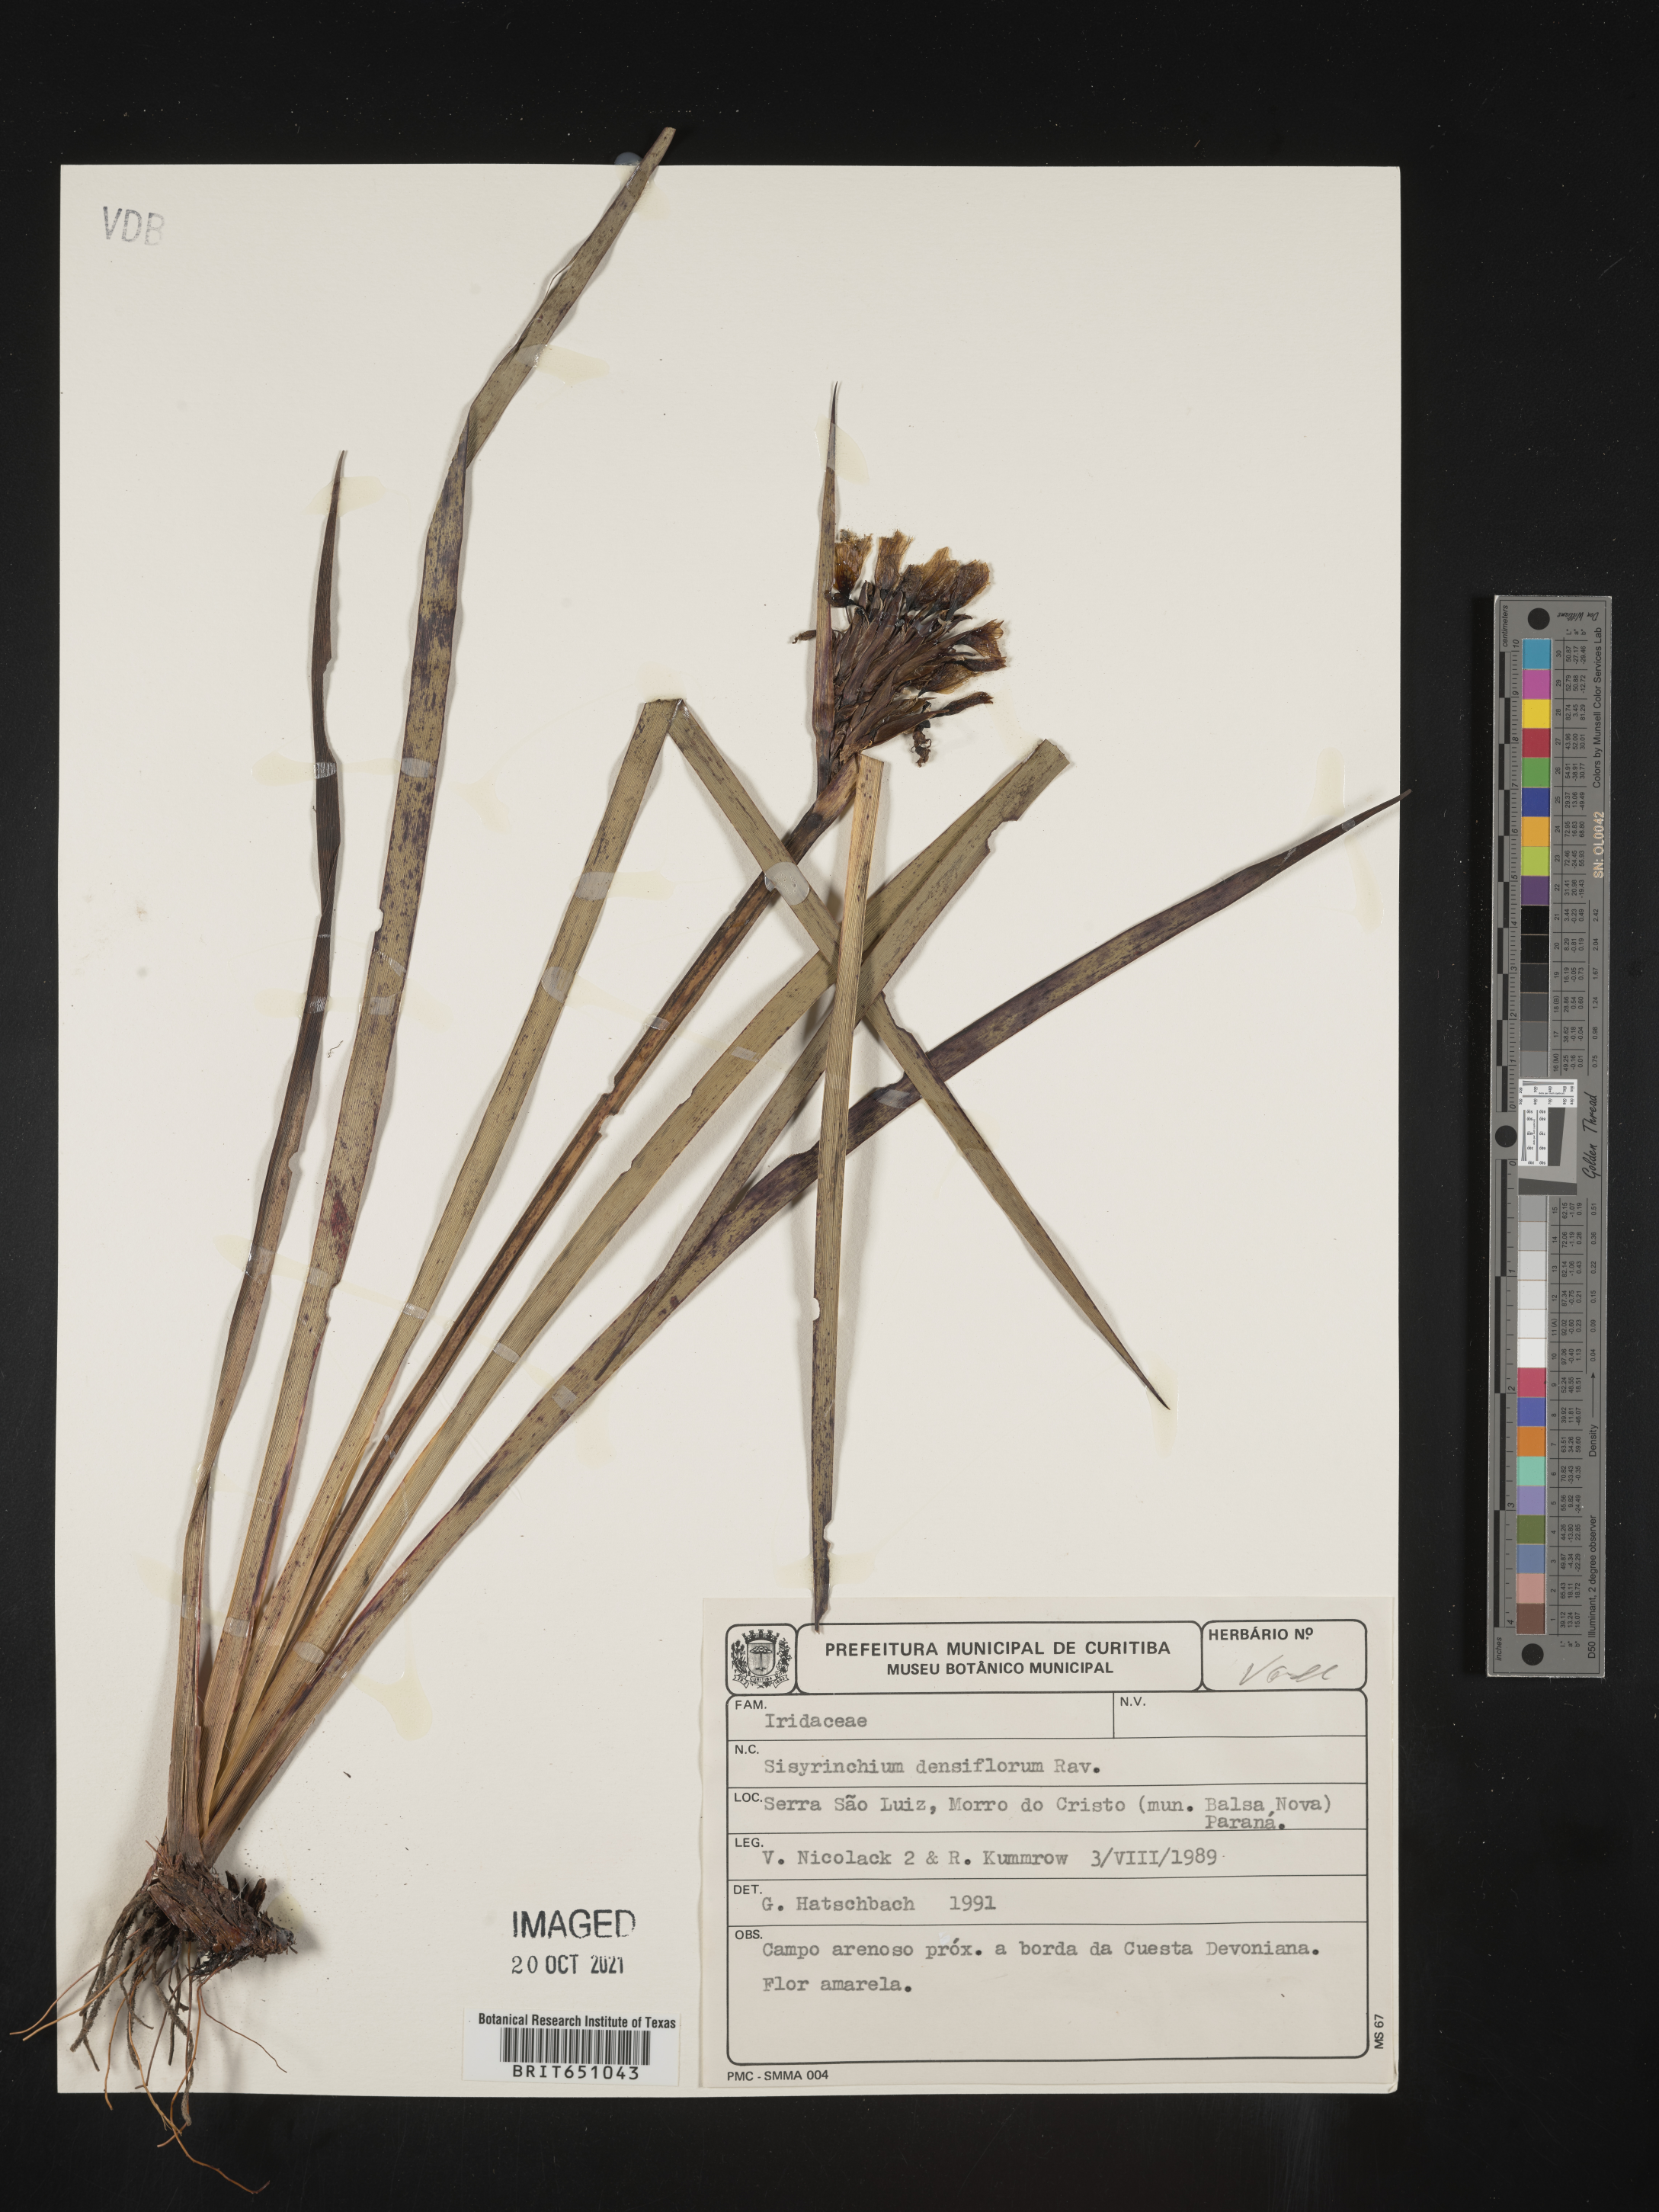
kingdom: Plantae
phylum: Tracheophyta
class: Liliopsida
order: Asparagales
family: Iridaceae
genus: Sisyrinchium
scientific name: Sisyrinchium
